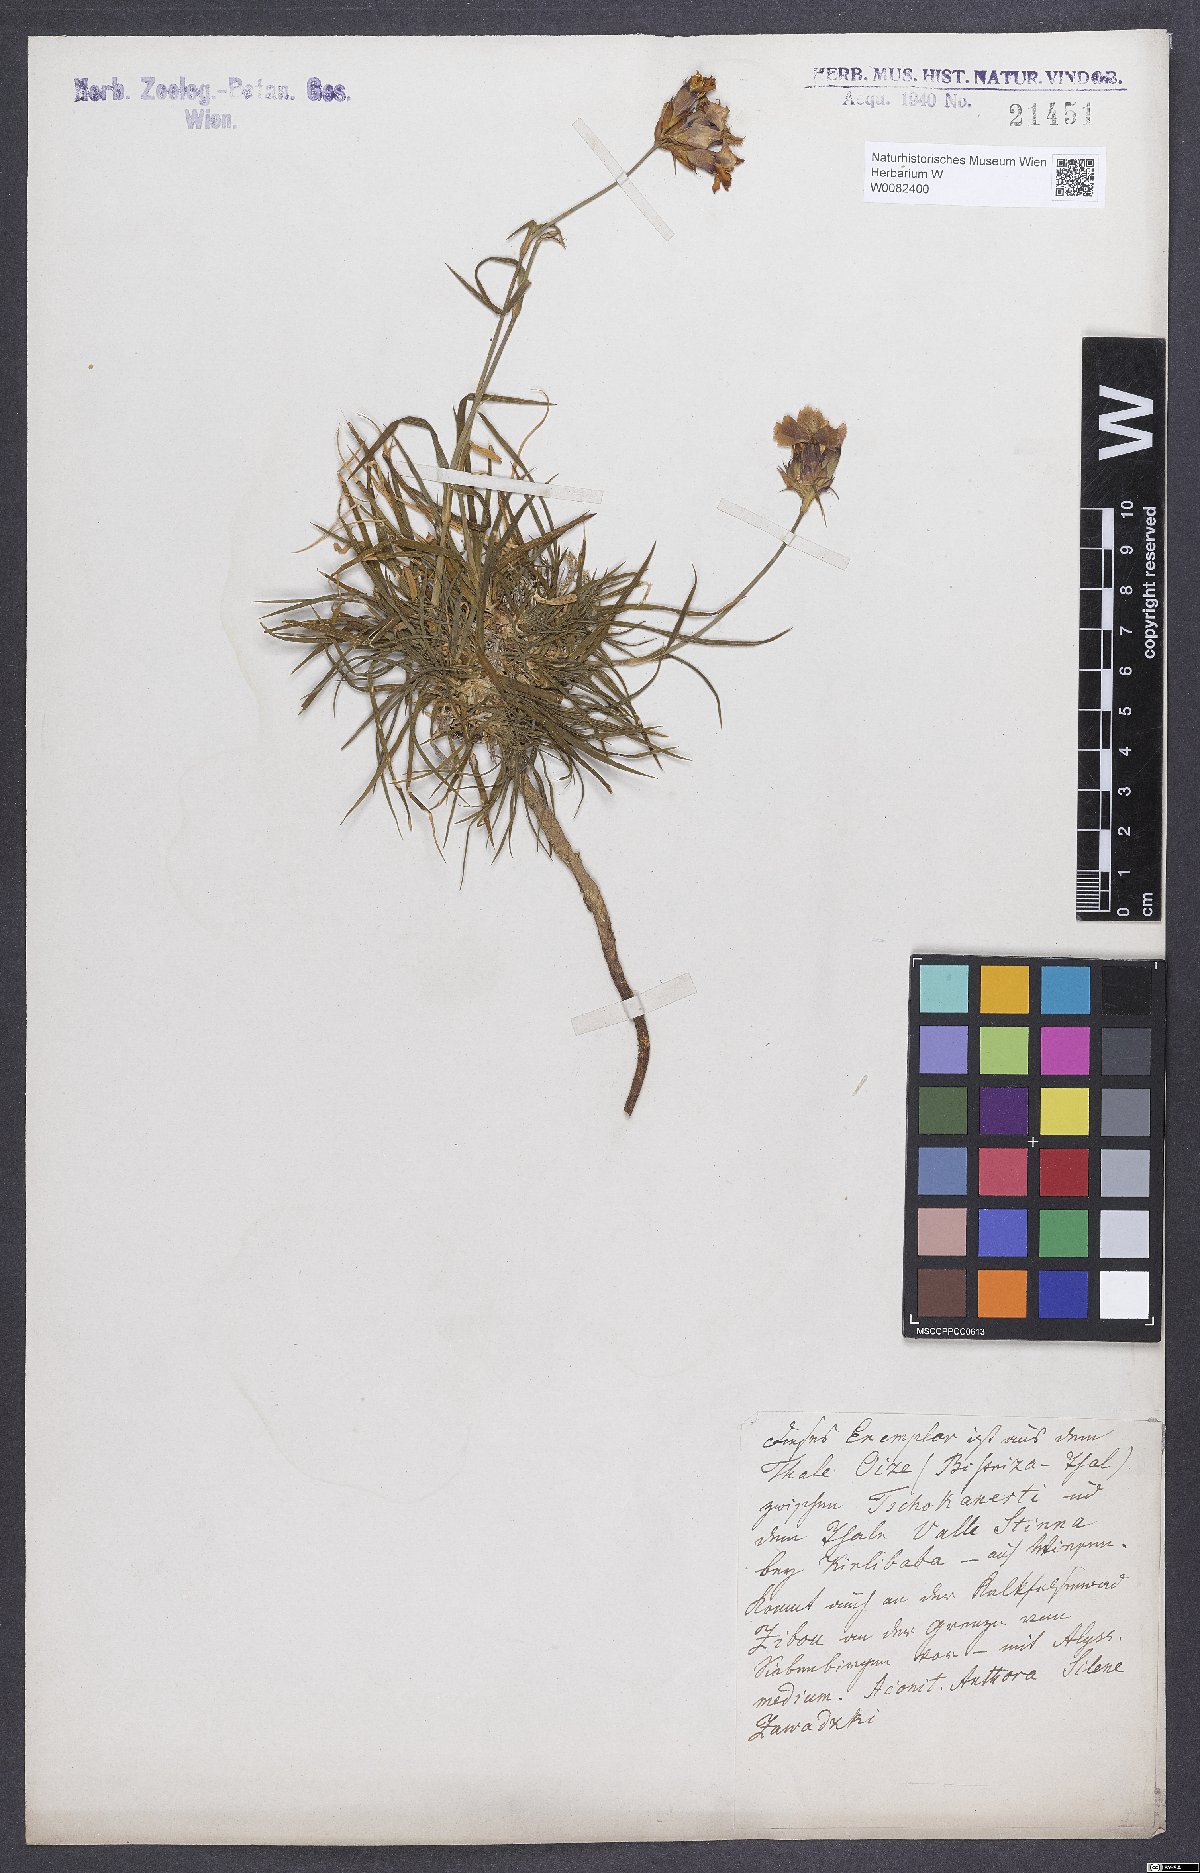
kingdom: Plantae
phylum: Tracheophyta
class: Magnoliopsida
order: Caryophyllales
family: Caryophyllaceae
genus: Dianthus
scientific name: Dianthus carthusianorum
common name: Carthusian pink
